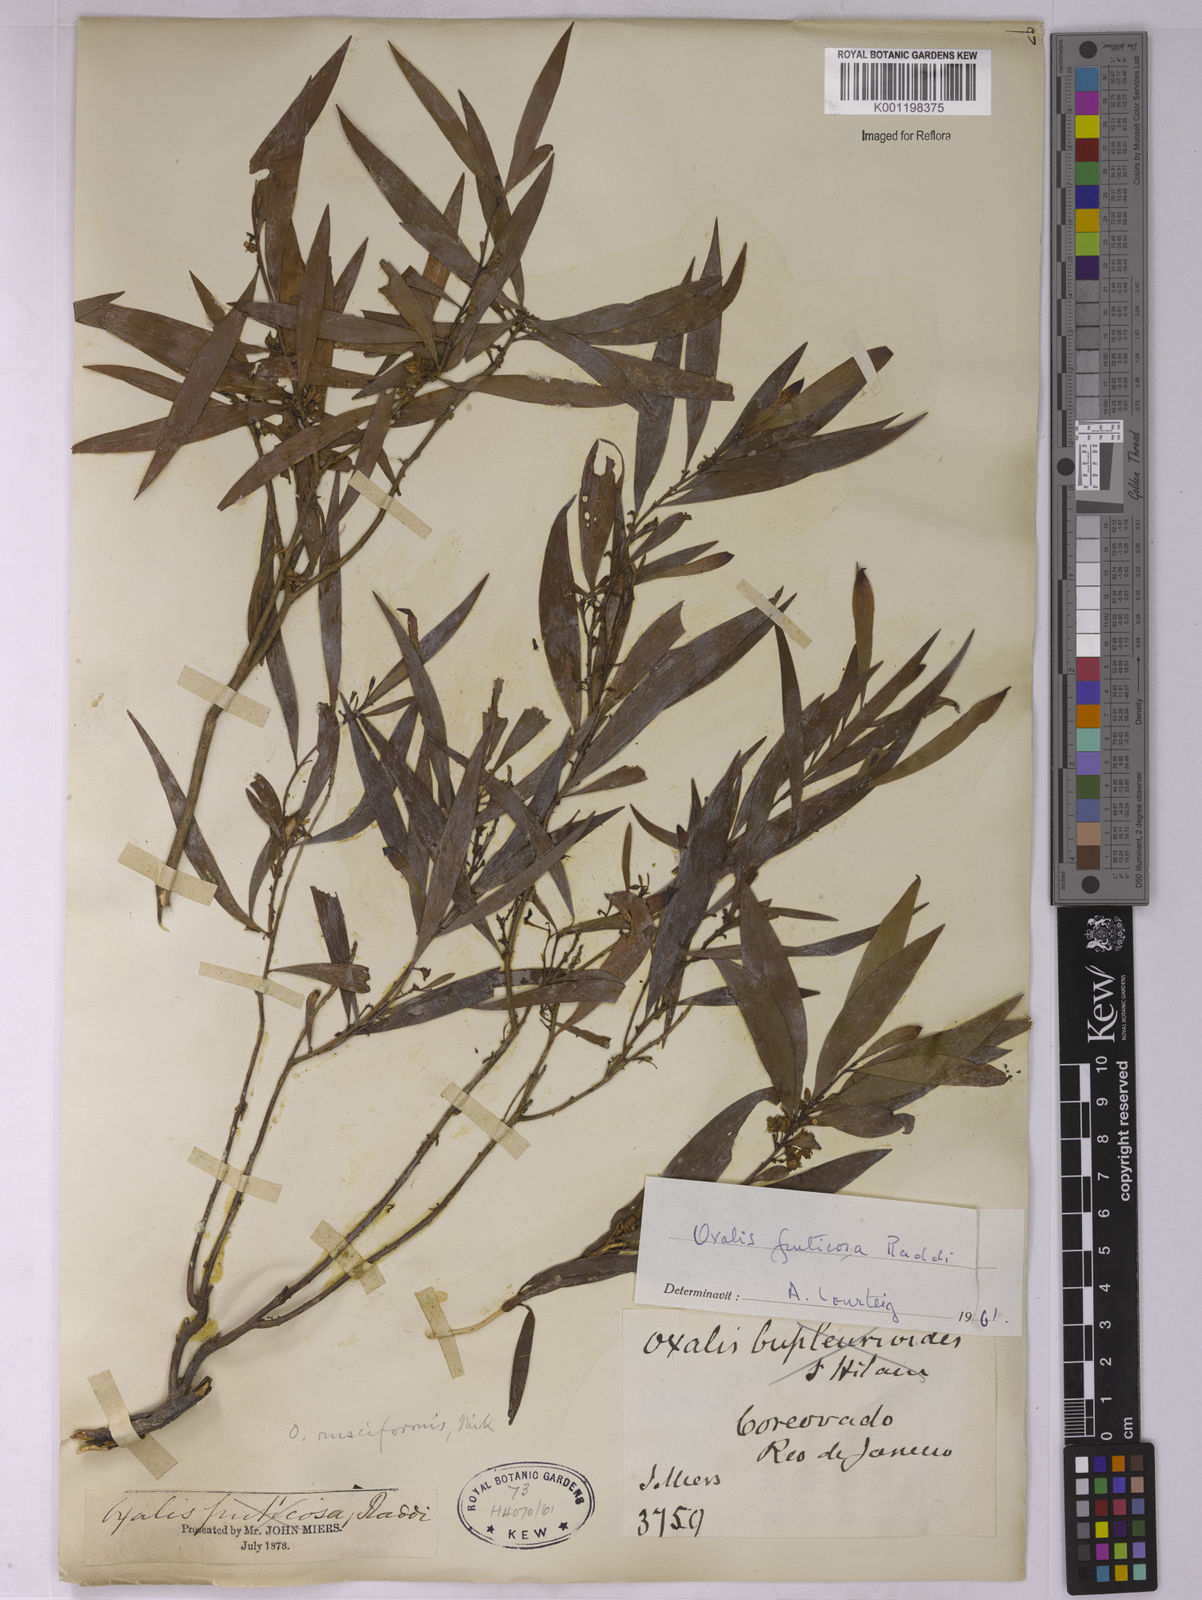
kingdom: Plantae
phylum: Tracheophyta
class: Magnoliopsida
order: Oxalidales
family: Oxalidaceae
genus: Oxalis
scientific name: Oxalis fruticosa
